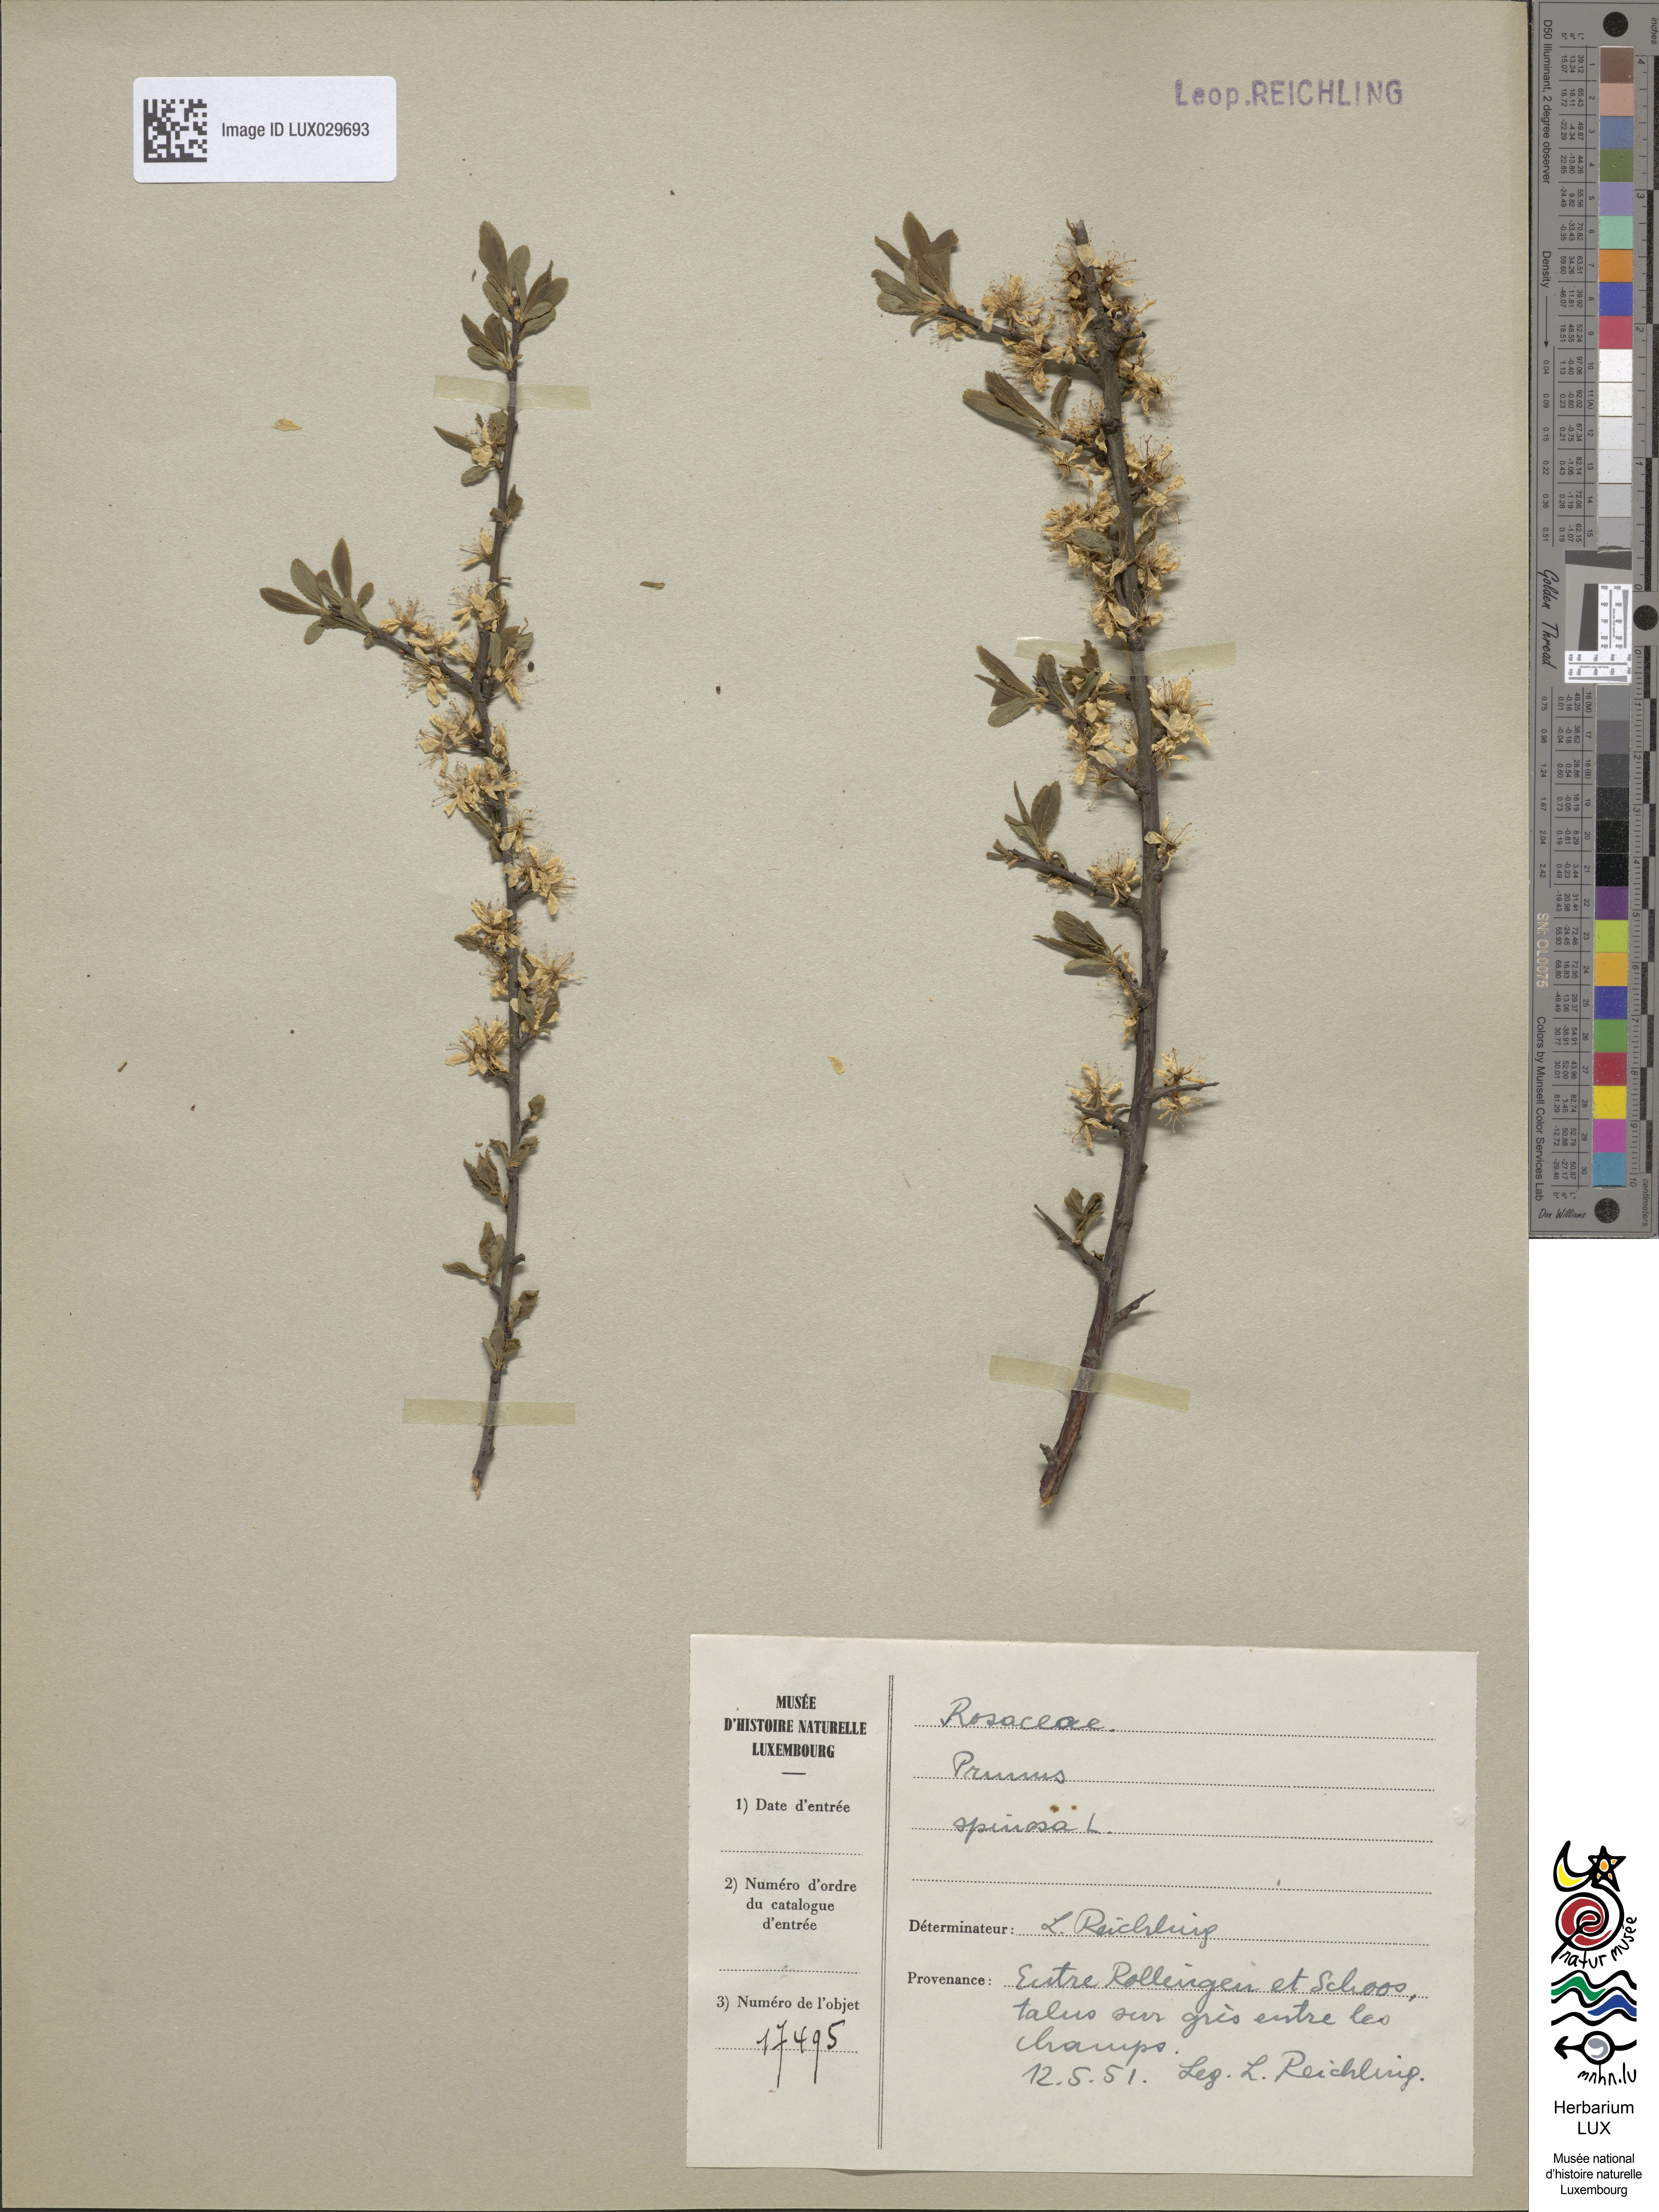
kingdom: Plantae
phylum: Tracheophyta
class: Magnoliopsida
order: Rosales
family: Rosaceae
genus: Prunus
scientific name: Prunus spinosa
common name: Blackthorn
